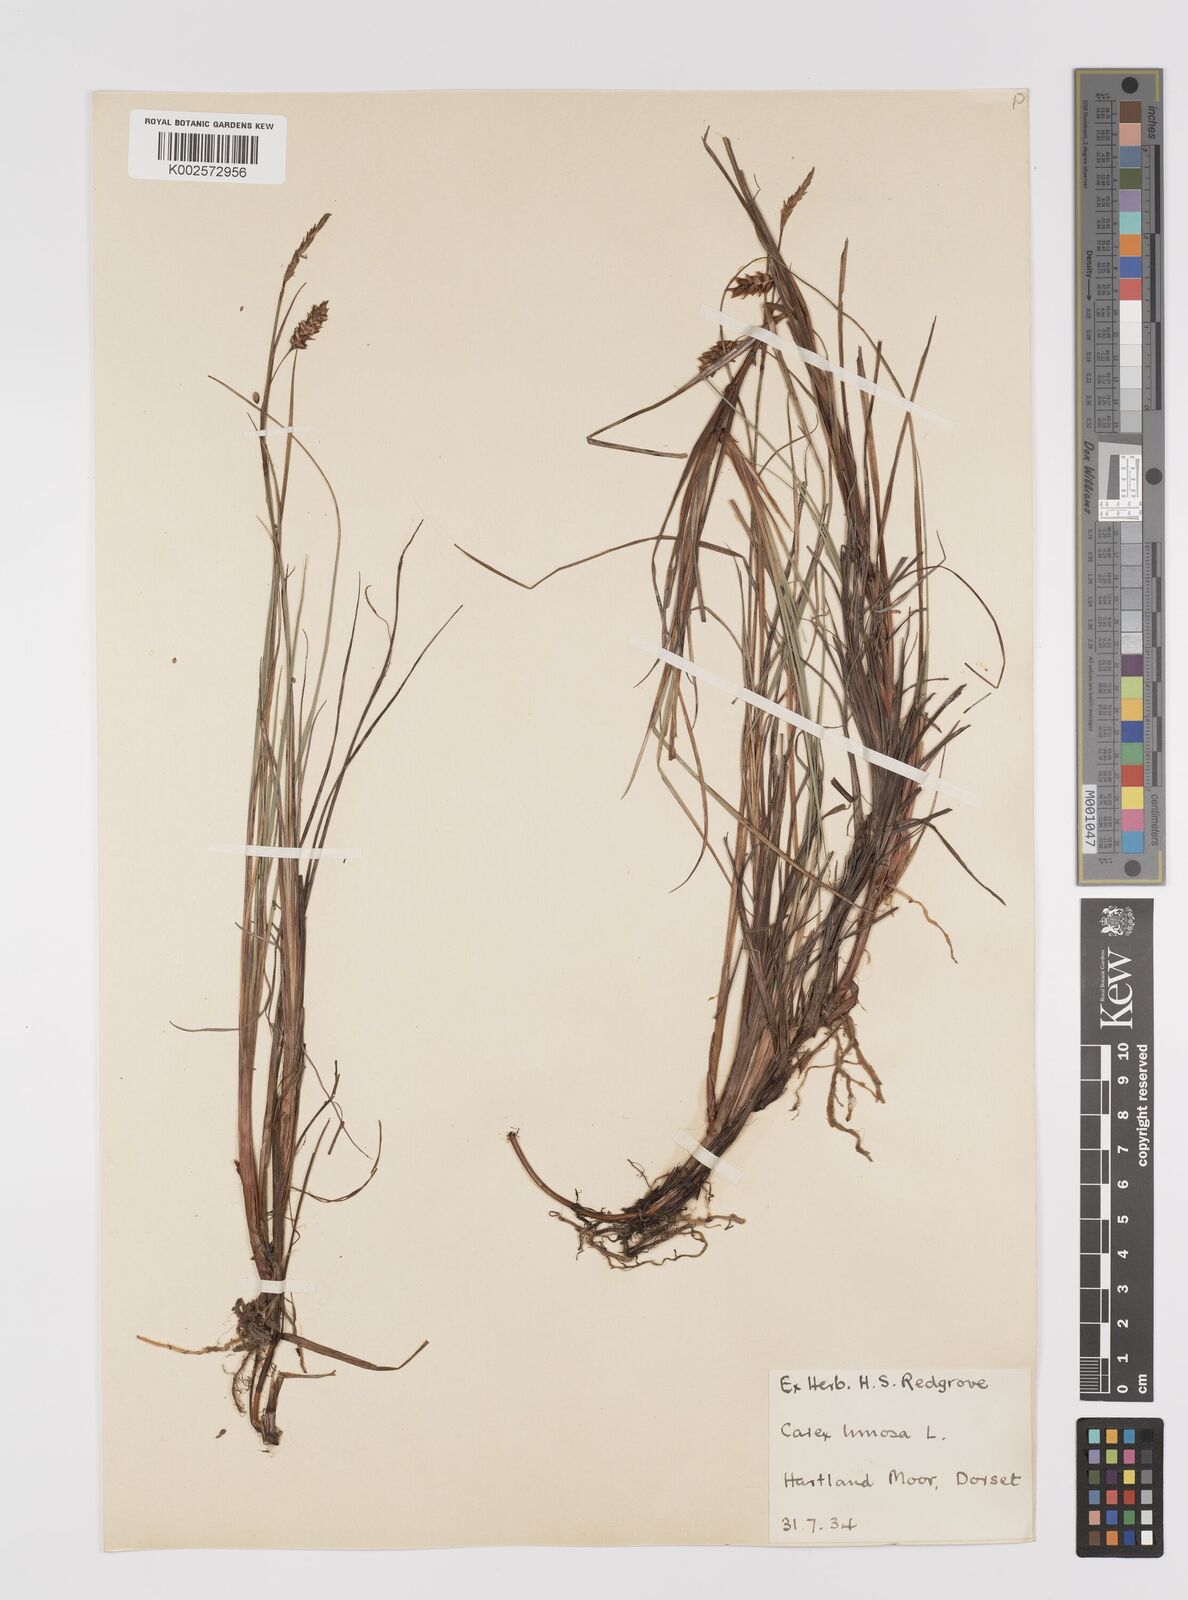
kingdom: Plantae
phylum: Tracheophyta
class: Liliopsida
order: Poales
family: Cyperaceae
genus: Carex
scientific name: Carex limosa
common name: Bog sedge
